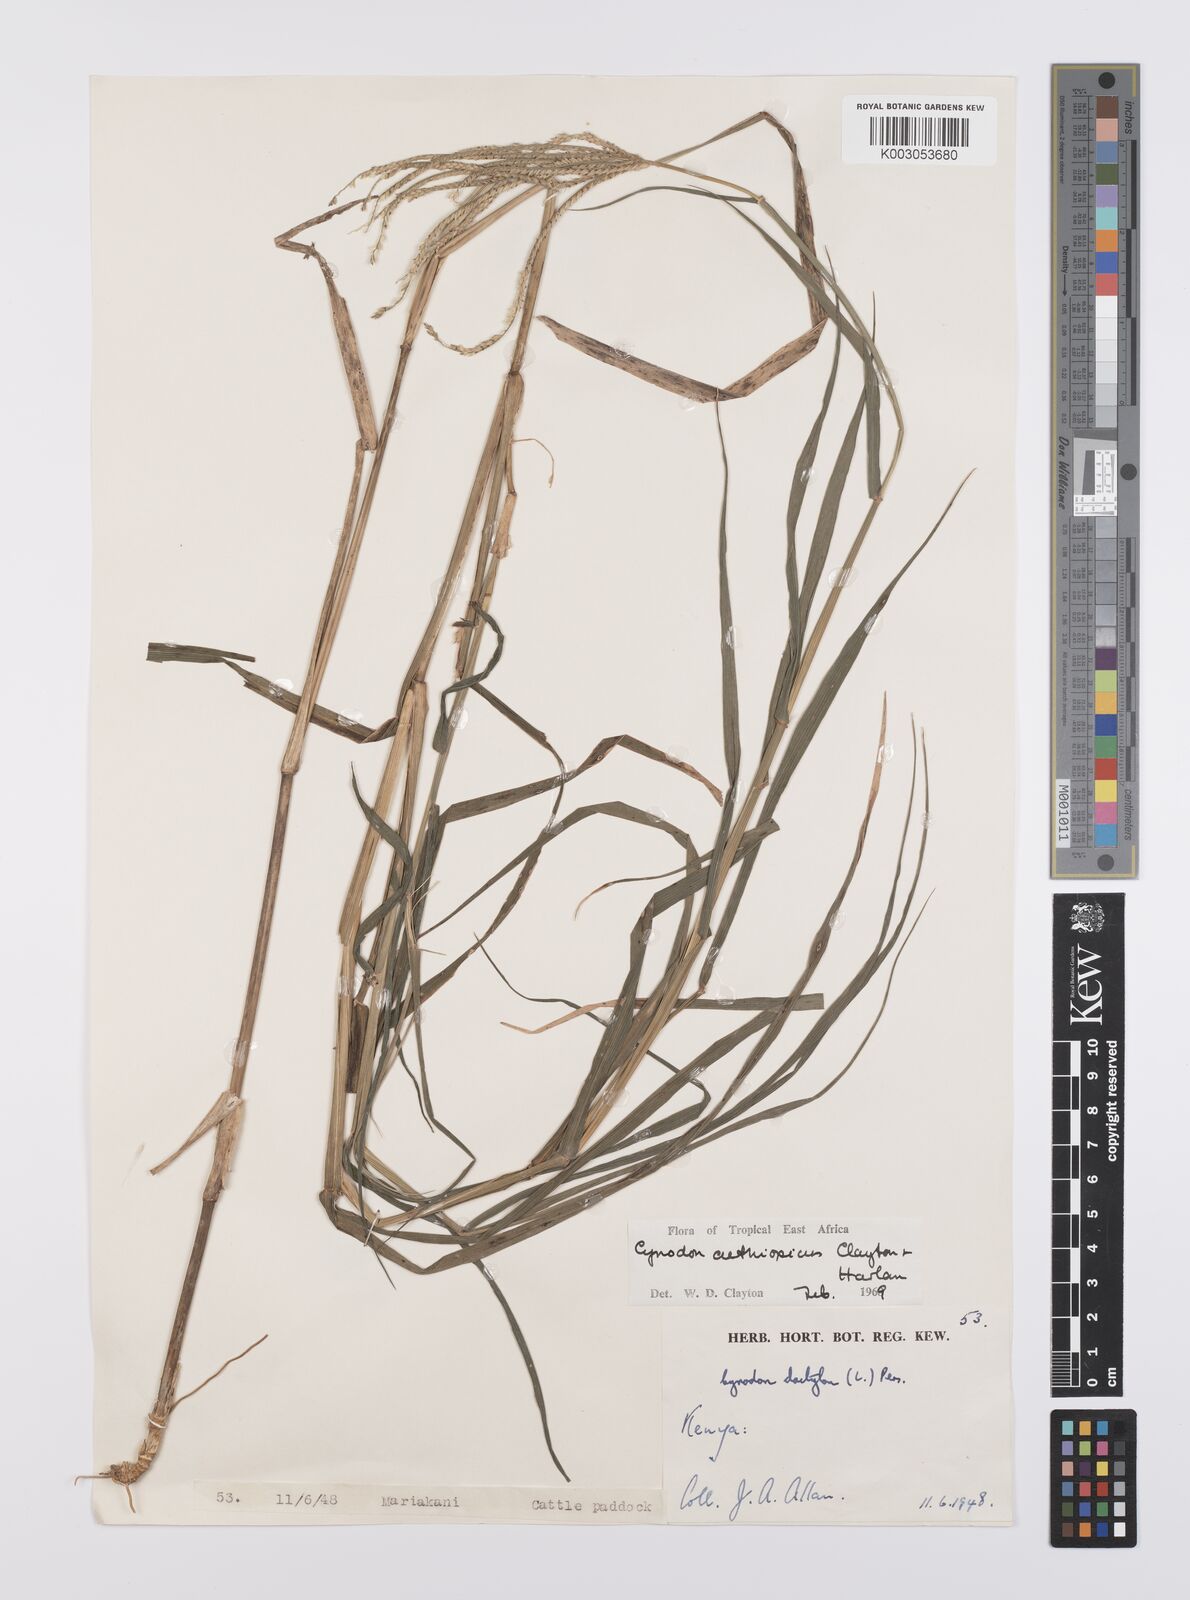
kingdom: Plantae
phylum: Tracheophyta
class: Liliopsida
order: Poales
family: Poaceae
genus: Cynodon
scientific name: Cynodon aethiopicus
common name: Ethiopian dogstooth grass
